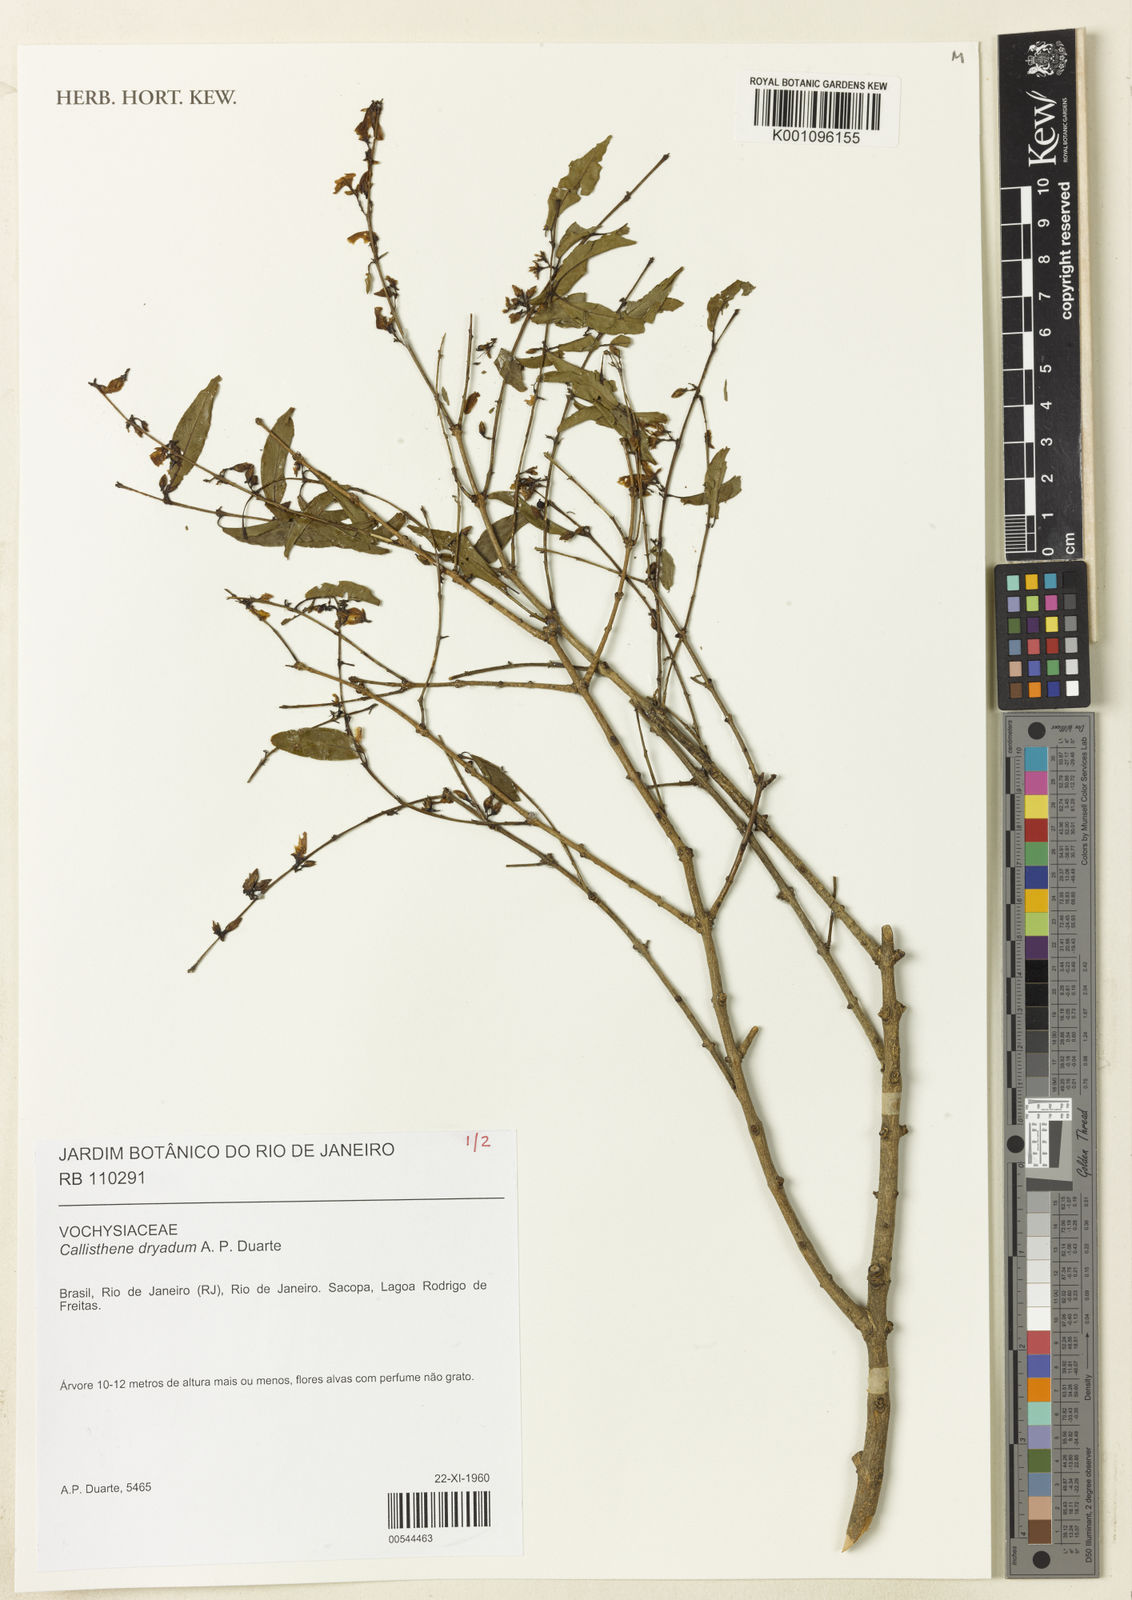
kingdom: Plantae
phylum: Tracheophyta
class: Magnoliopsida
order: Myrtales
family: Vochysiaceae
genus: Callisthene
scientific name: Callisthene dryadum
